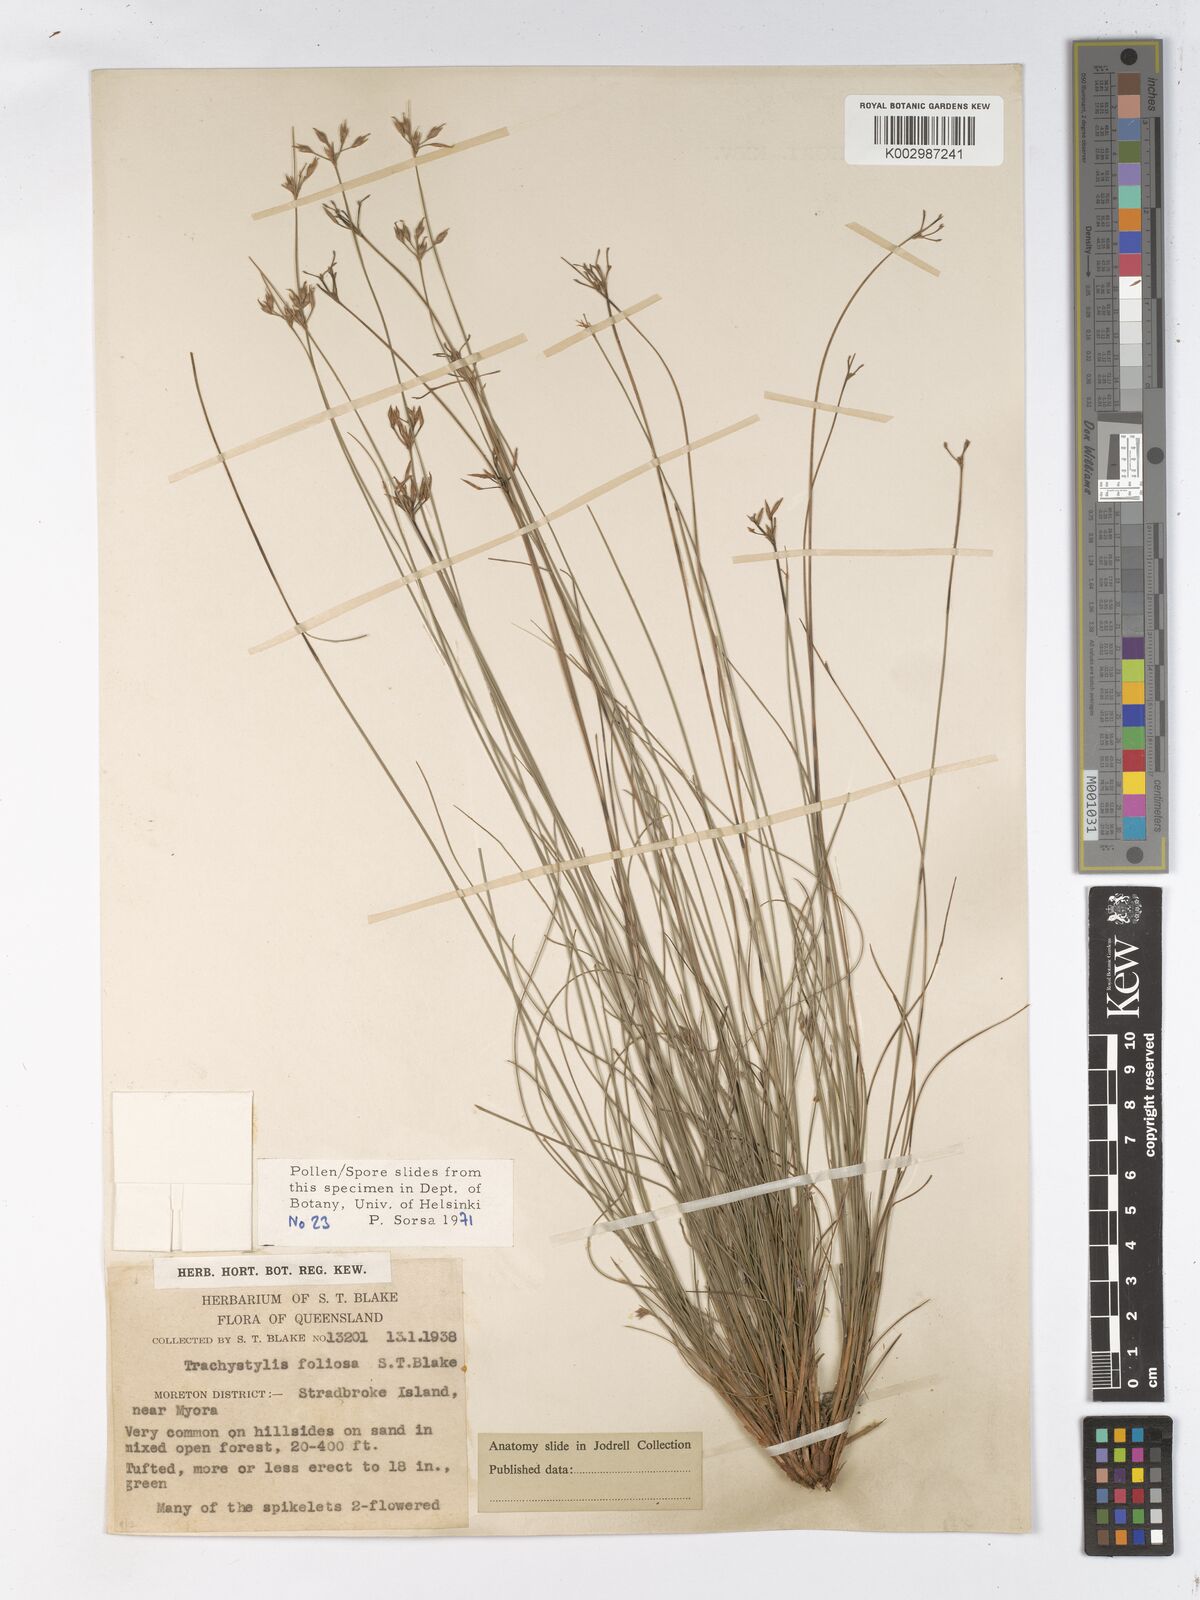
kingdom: Plantae
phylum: Tracheophyta
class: Liliopsida
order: Poales
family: Cyperaceae
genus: Trachystylis
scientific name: Trachystylis stradbrokensis
